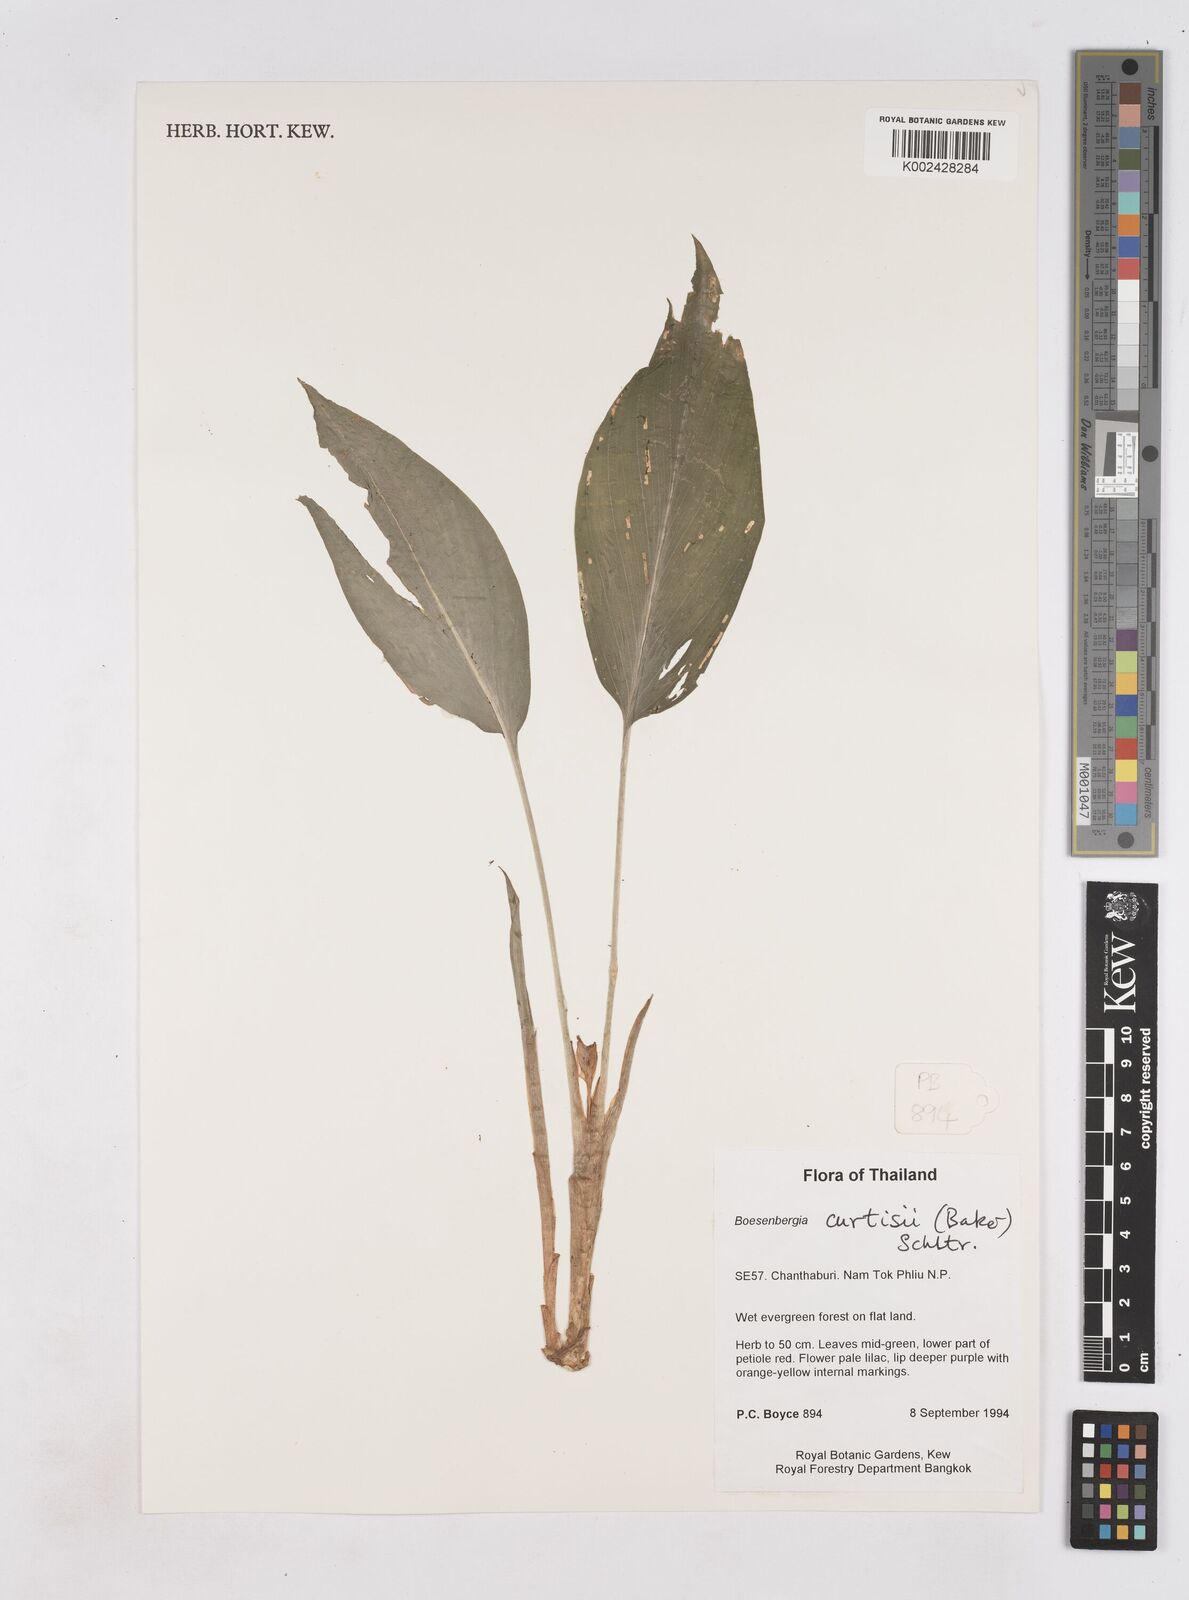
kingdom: Plantae
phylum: Tracheophyta
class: Liliopsida
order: Zingiberales
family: Zingiberaceae
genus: Boesenbergia
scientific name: Boesenbergia curtisii
